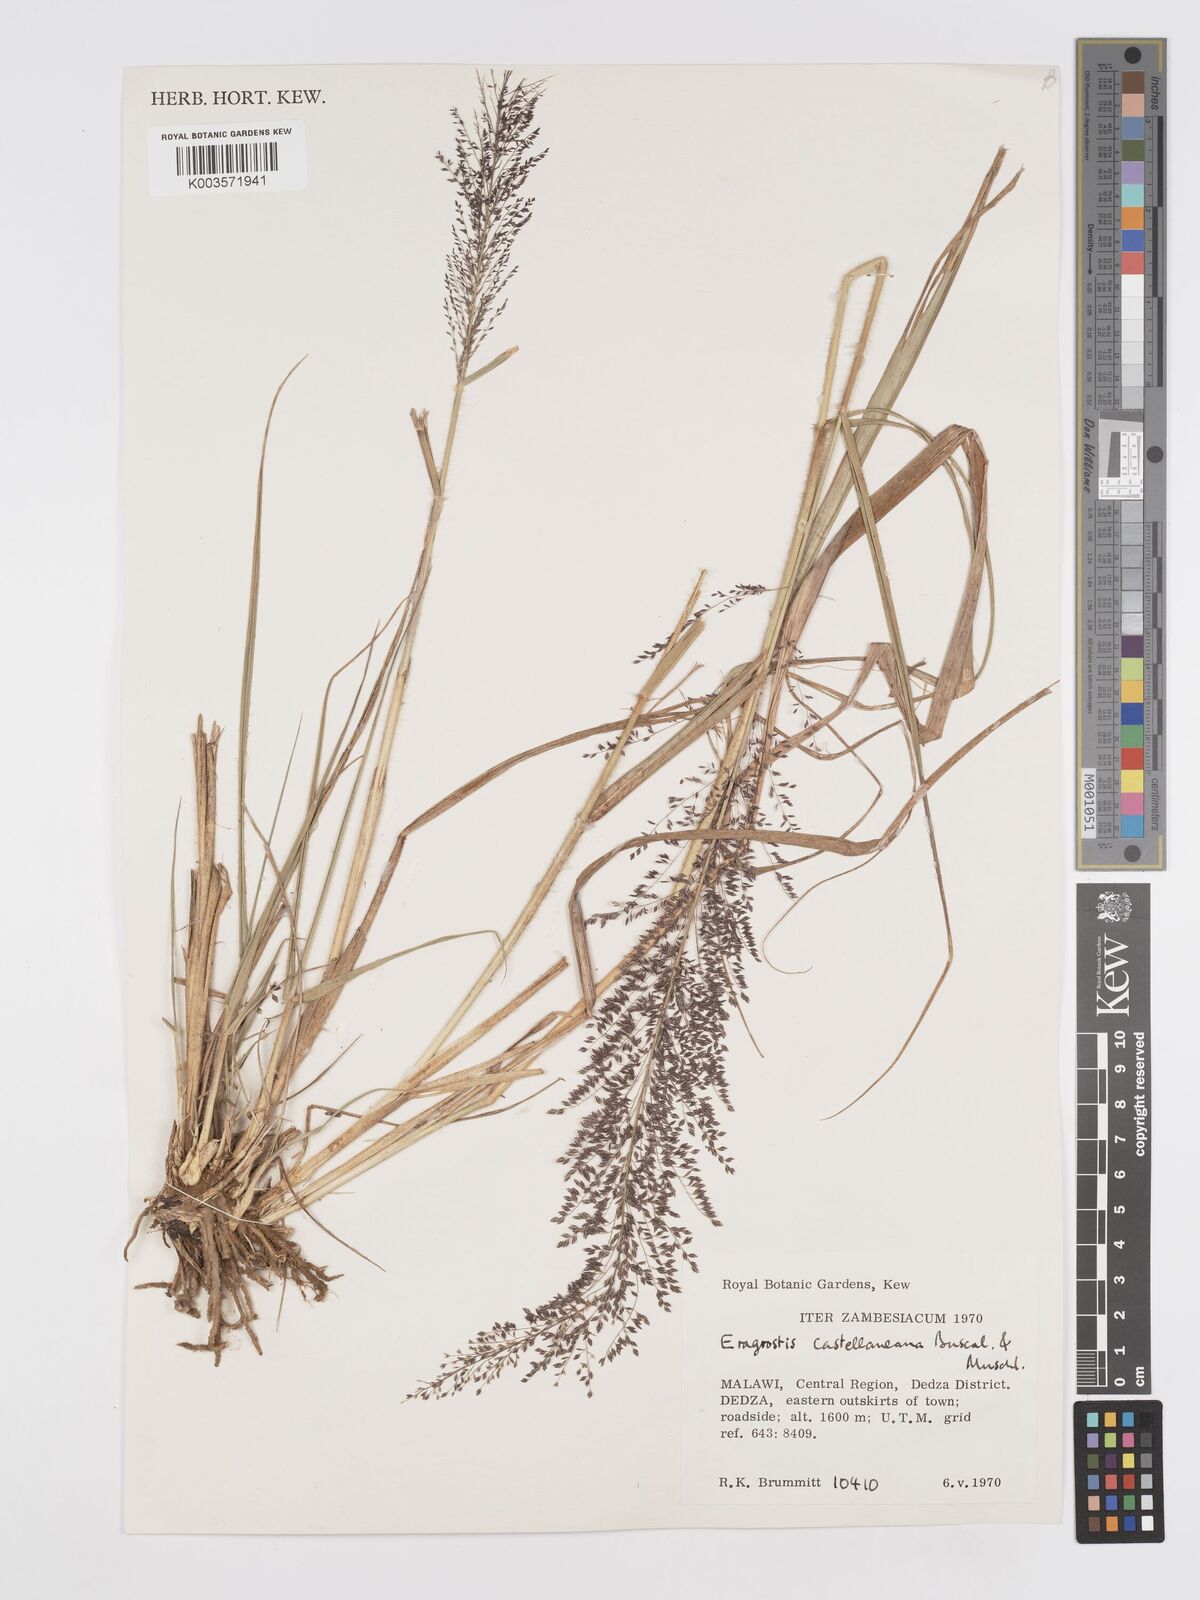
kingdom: Plantae
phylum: Tracheophyta
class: Liliopsida
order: Poales
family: Poaceae
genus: Eragrostis
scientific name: Eragrostis castellaneana
